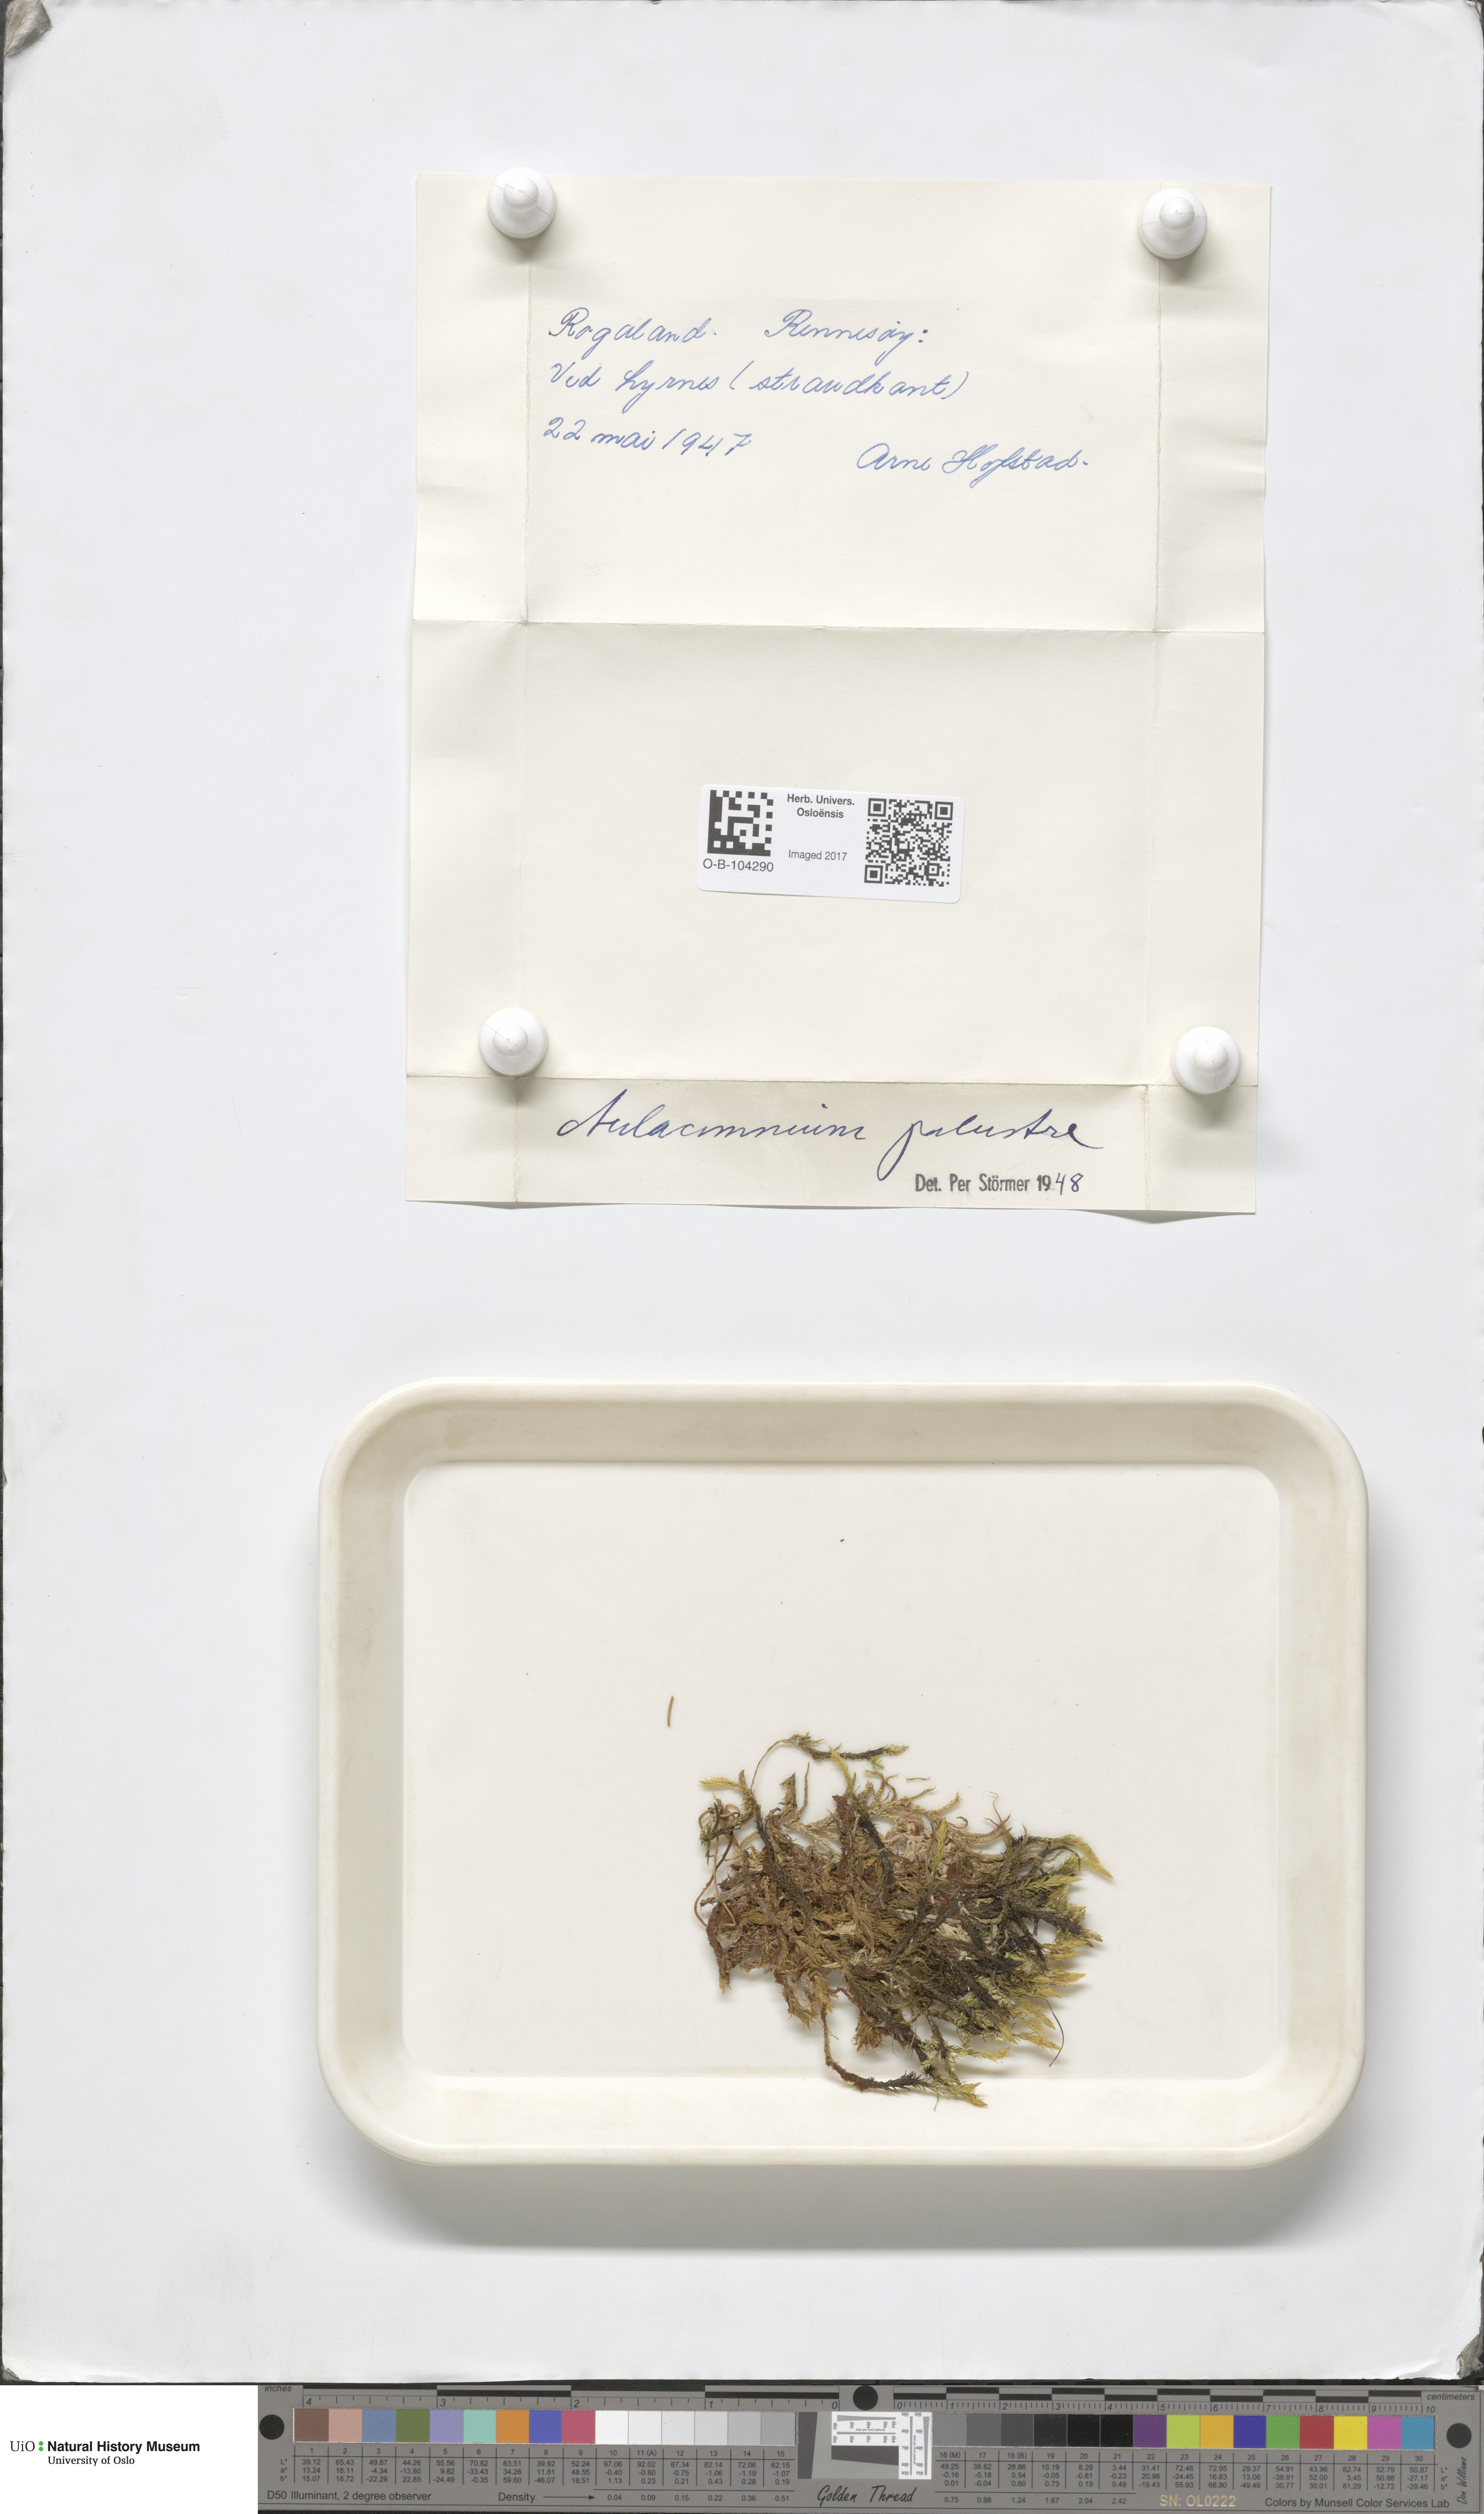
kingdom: Plantae
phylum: Bryophyta
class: Bryopsida
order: Aulacomniales
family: Aulacomniaceae
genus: Aulacomnium
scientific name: Aulacomnium palustre
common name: Bog groove-moss
